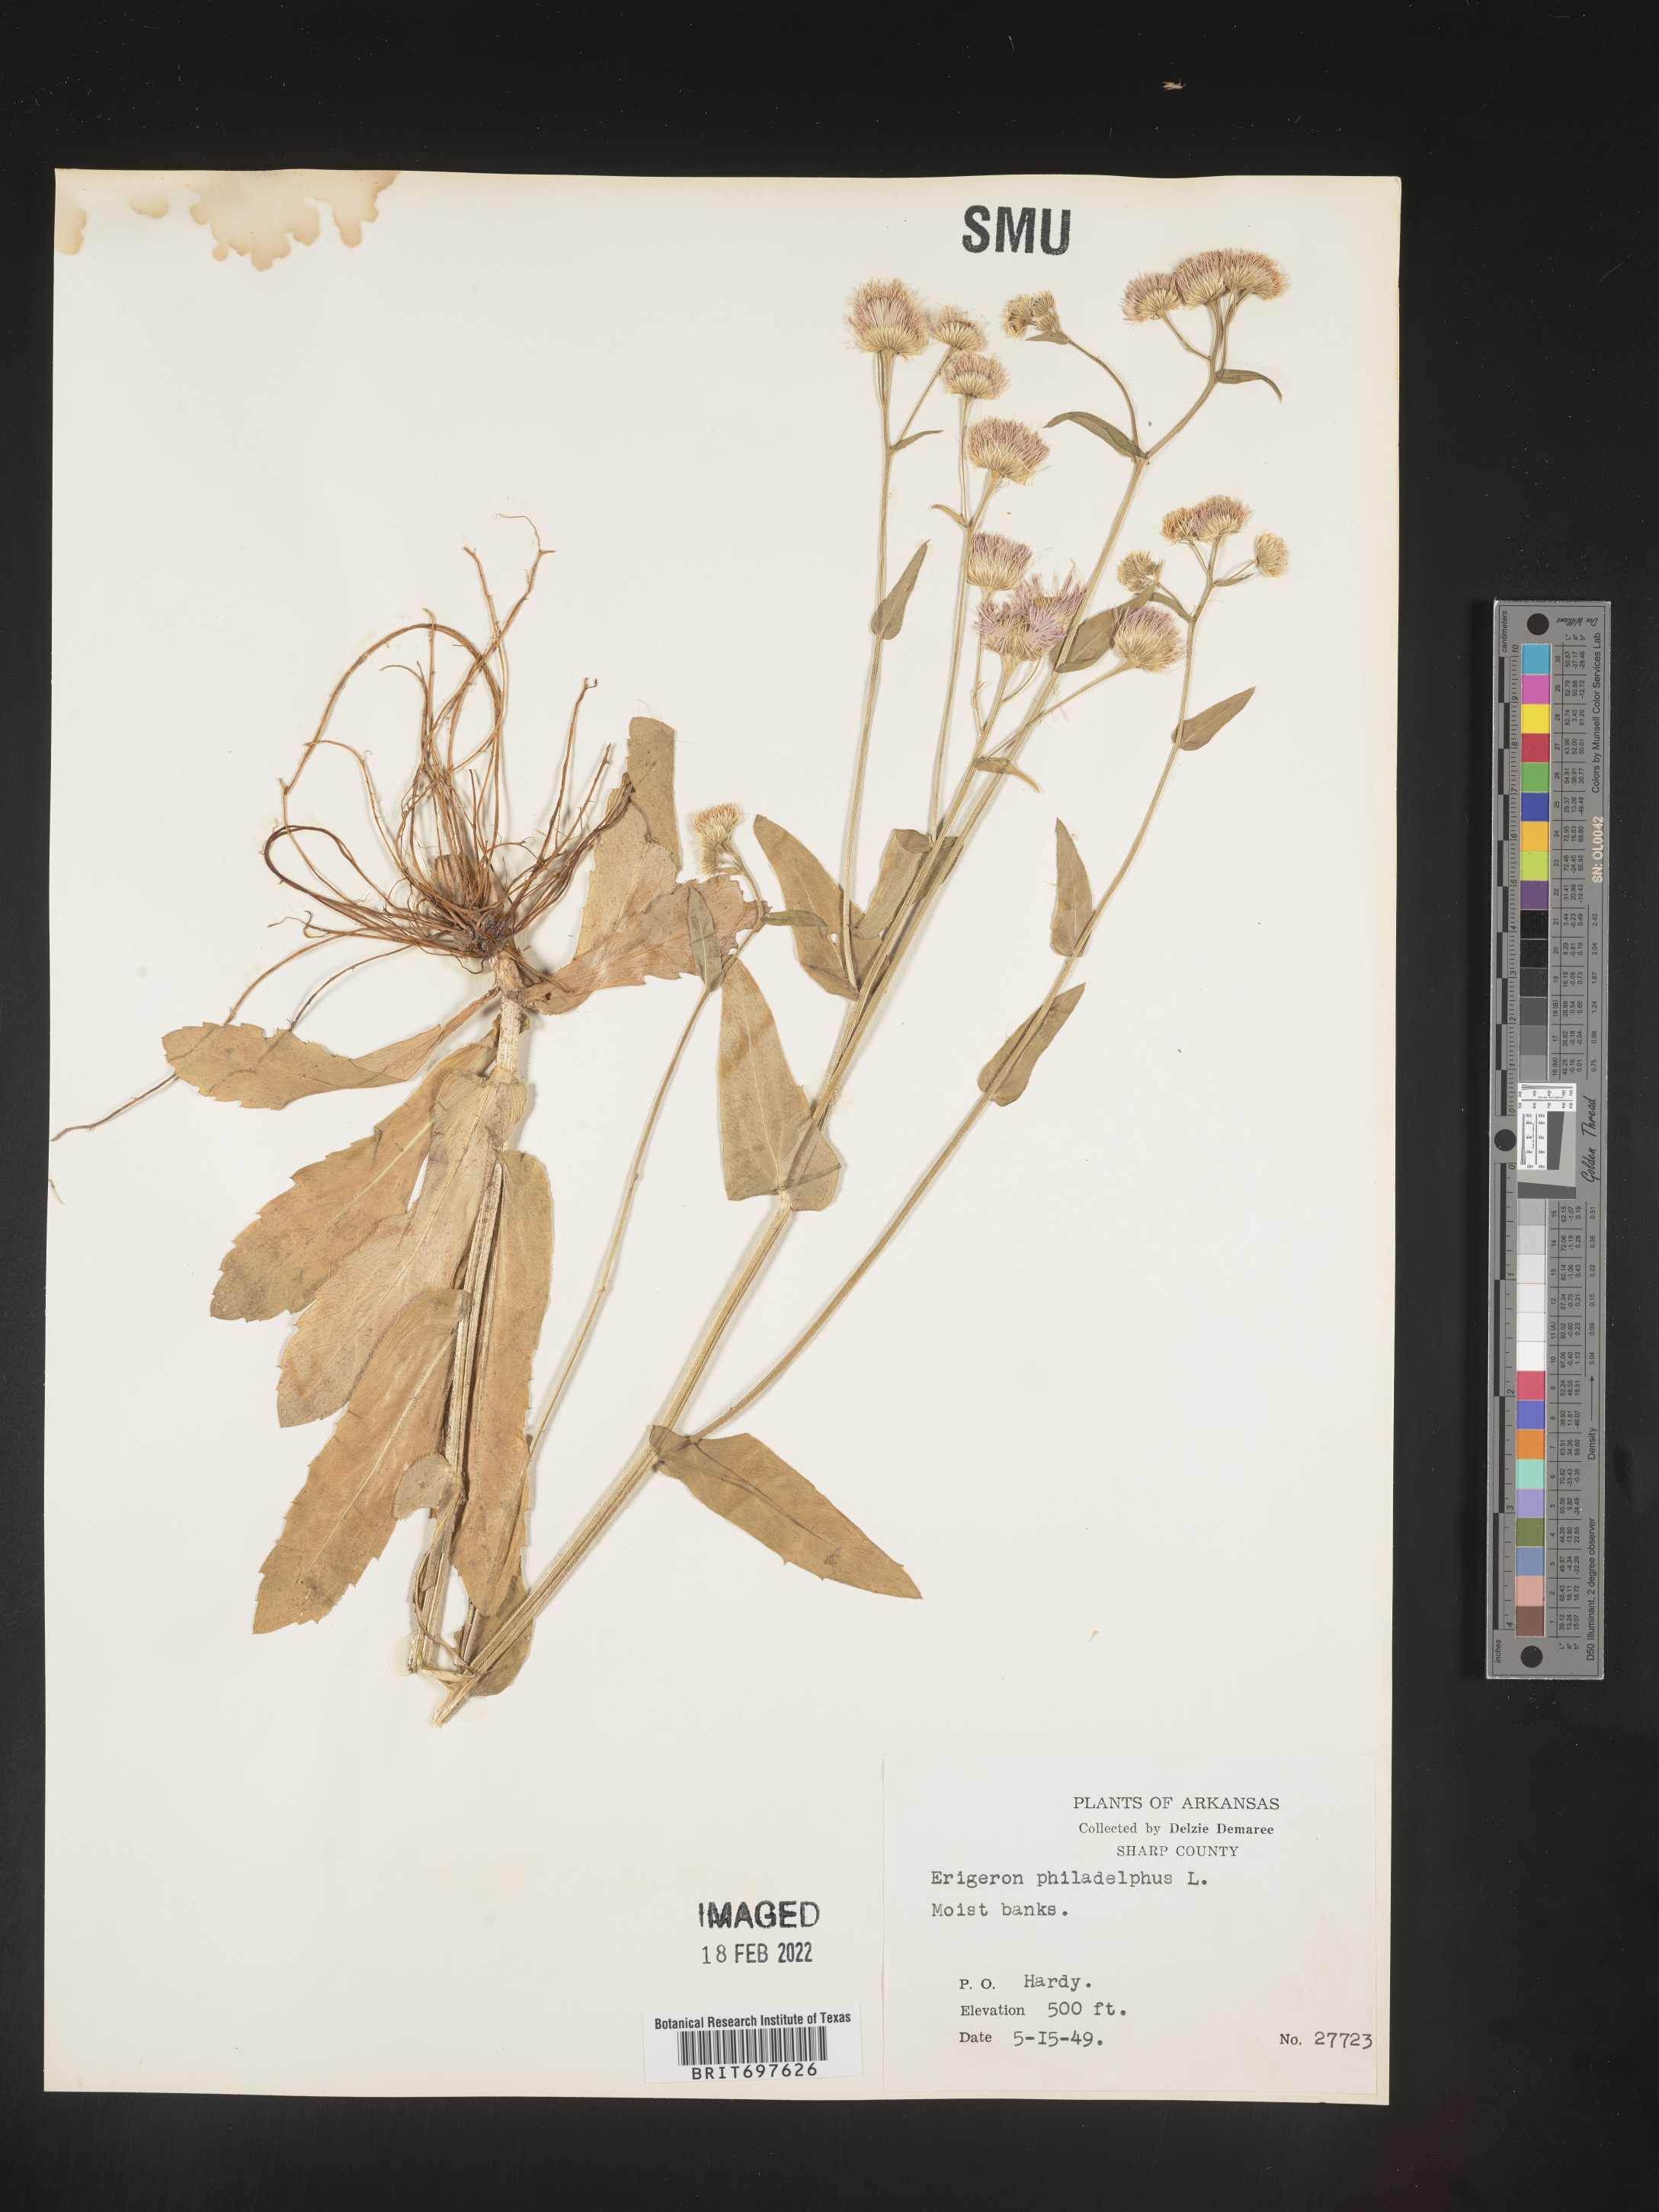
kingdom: Plantae
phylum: Tracheophyta
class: Magnoliopsida
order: Asterales
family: Asteraceae
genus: Erigeron
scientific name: Erigeron philadelphicus
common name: Robin's-plantain
